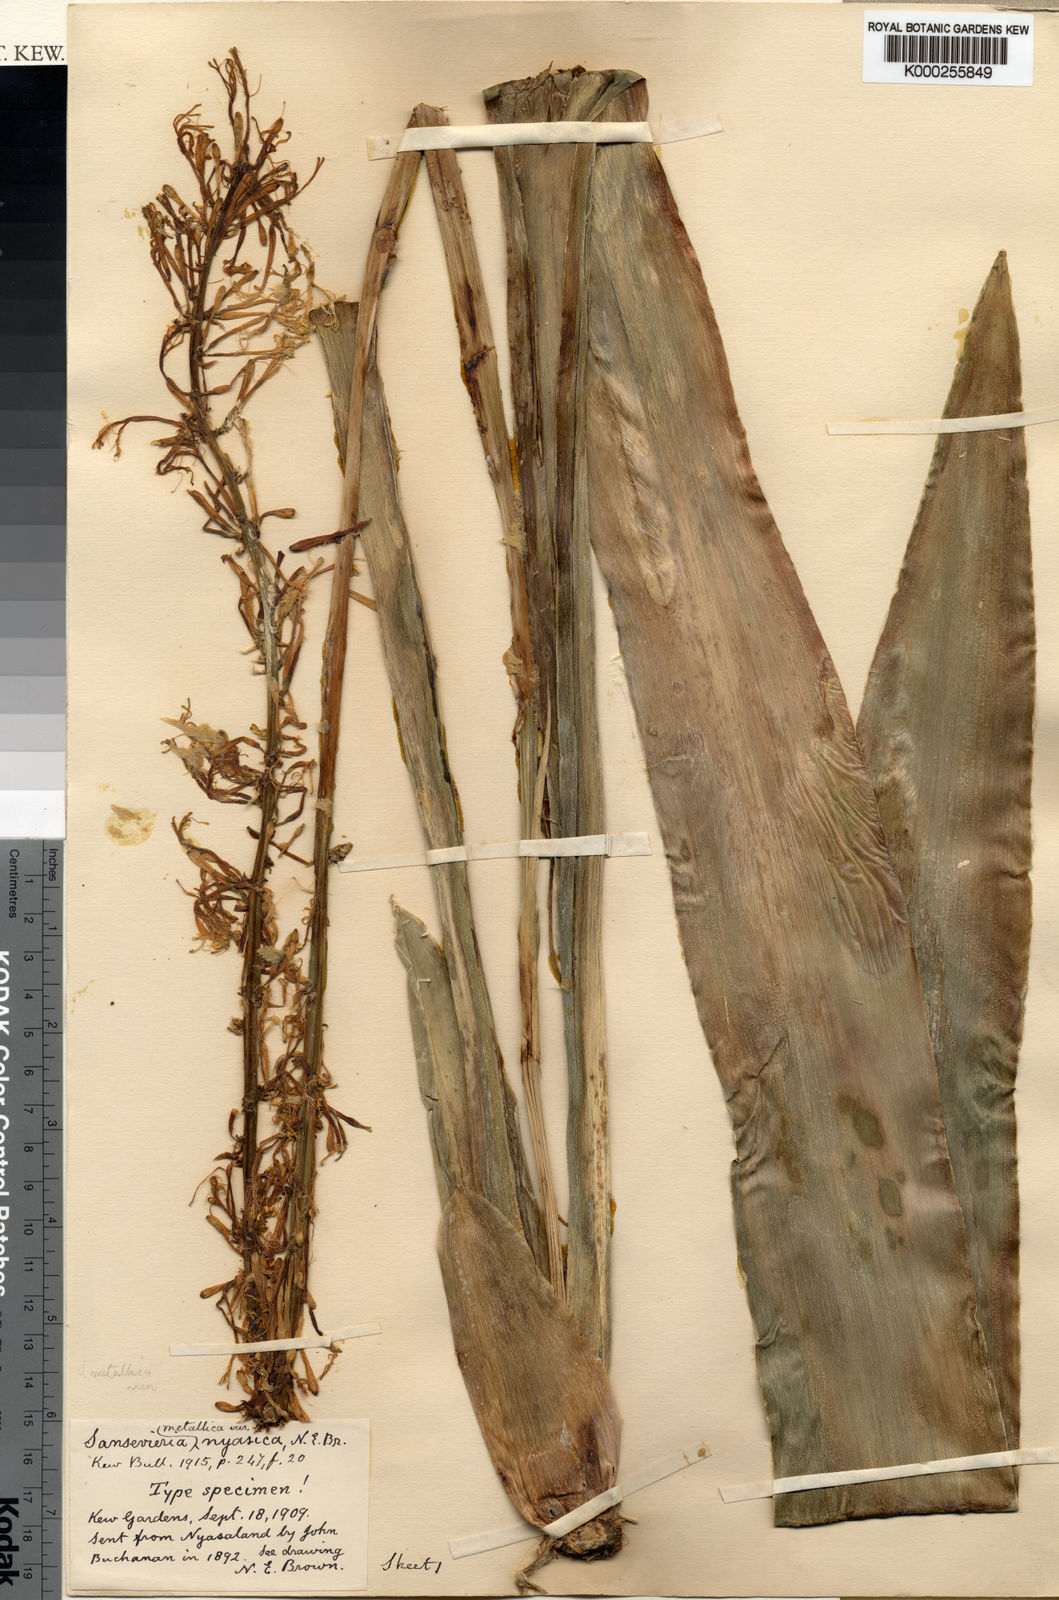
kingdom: Plantae
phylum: Tracheophyta
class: Liliopsida
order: Asparagales
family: Asparagaceae
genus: Dracaena
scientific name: Dracaena zebra
